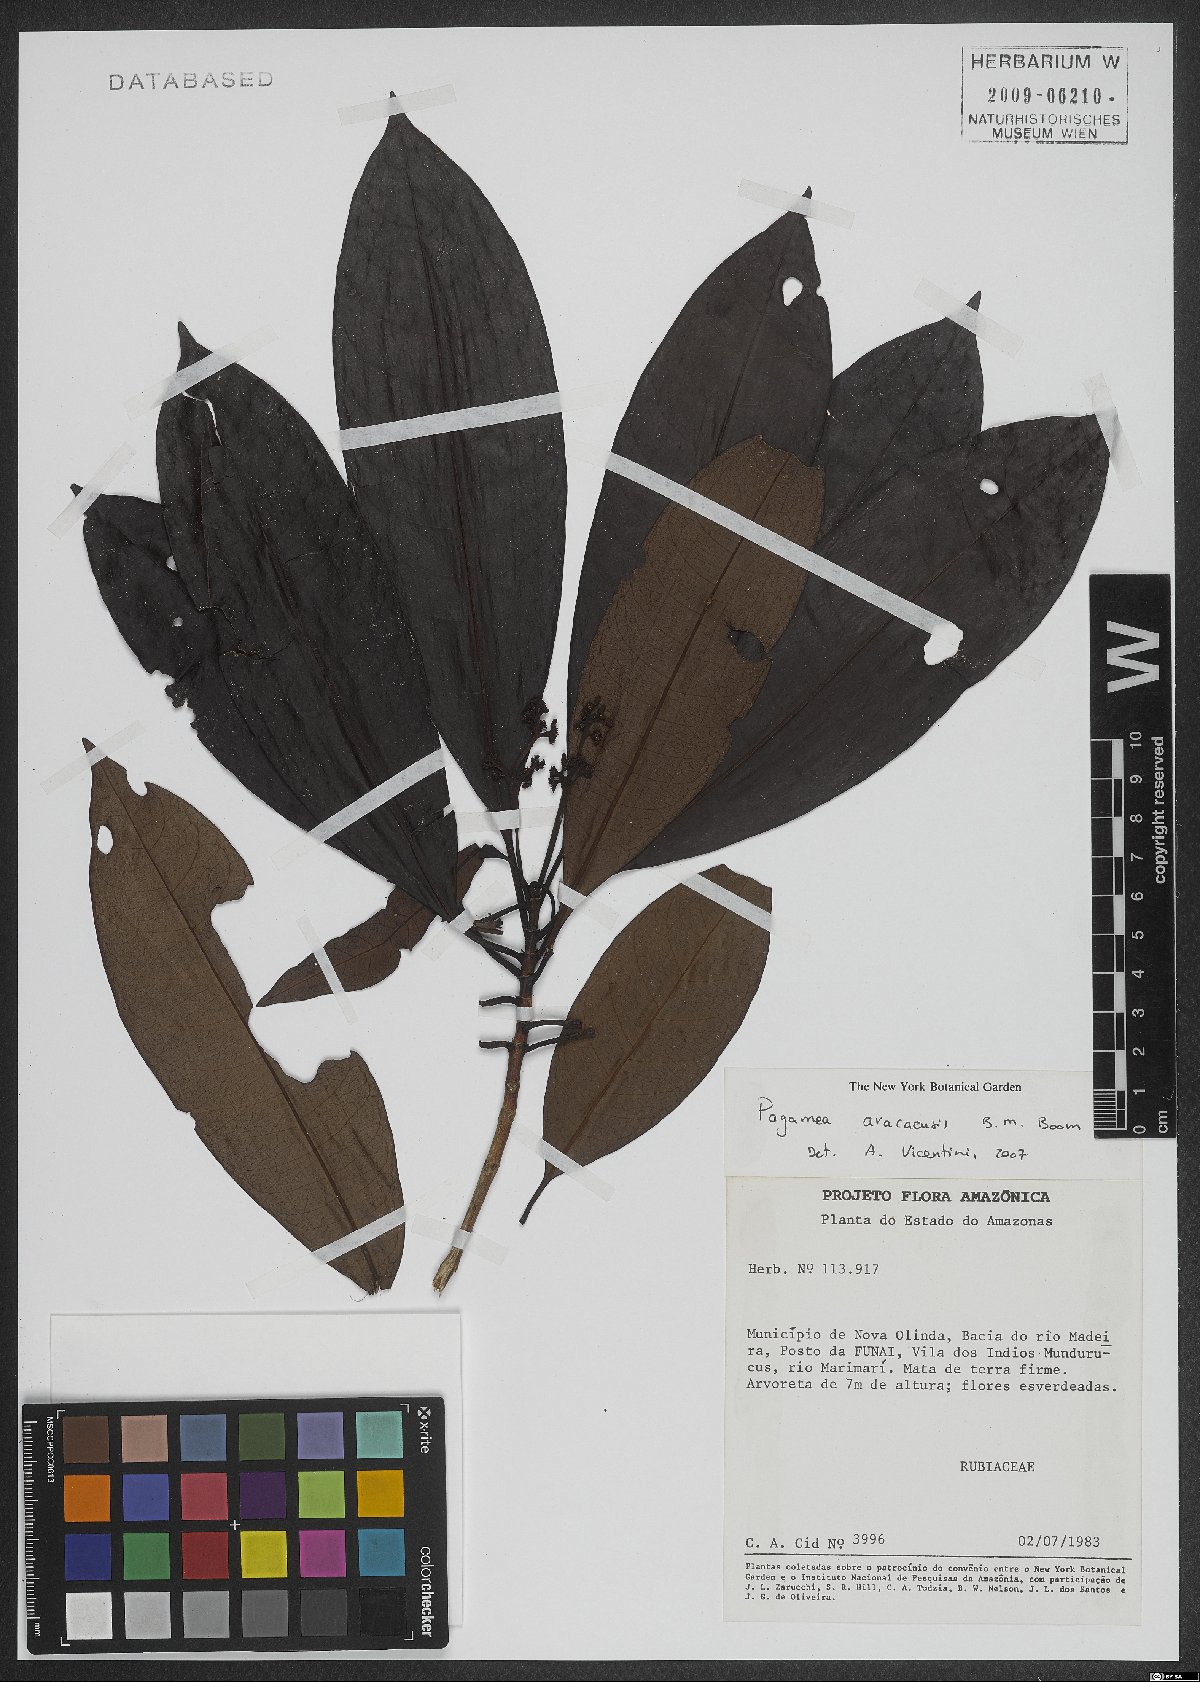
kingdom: Plantae
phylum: Tracheophyta
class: Magnoliopsida
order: Gentianales
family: Rubiaceae
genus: Pagamea
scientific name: Pagamea aracaensis
